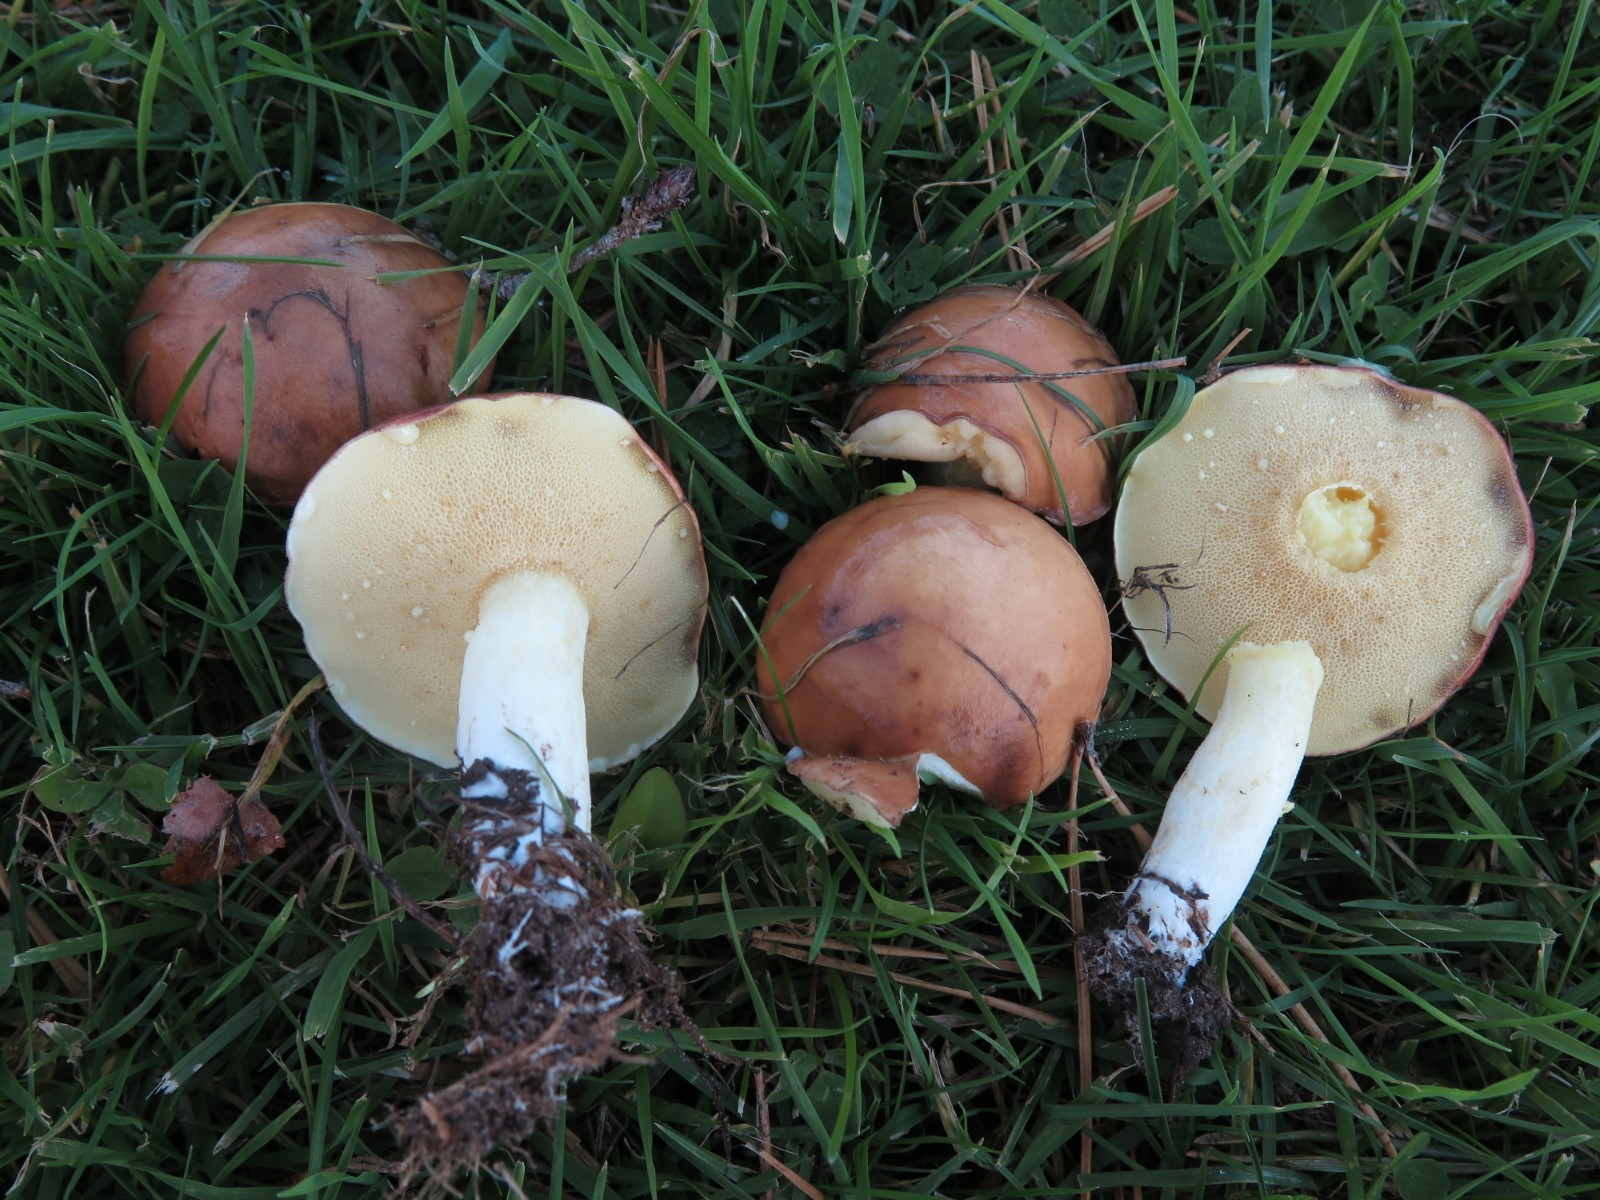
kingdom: Fungi
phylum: Basidiomycota
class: Agaricomycetes
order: Boletales
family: Suillaceae
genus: Suillus
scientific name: Suillus granulatus
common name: kornet slimrørhat
